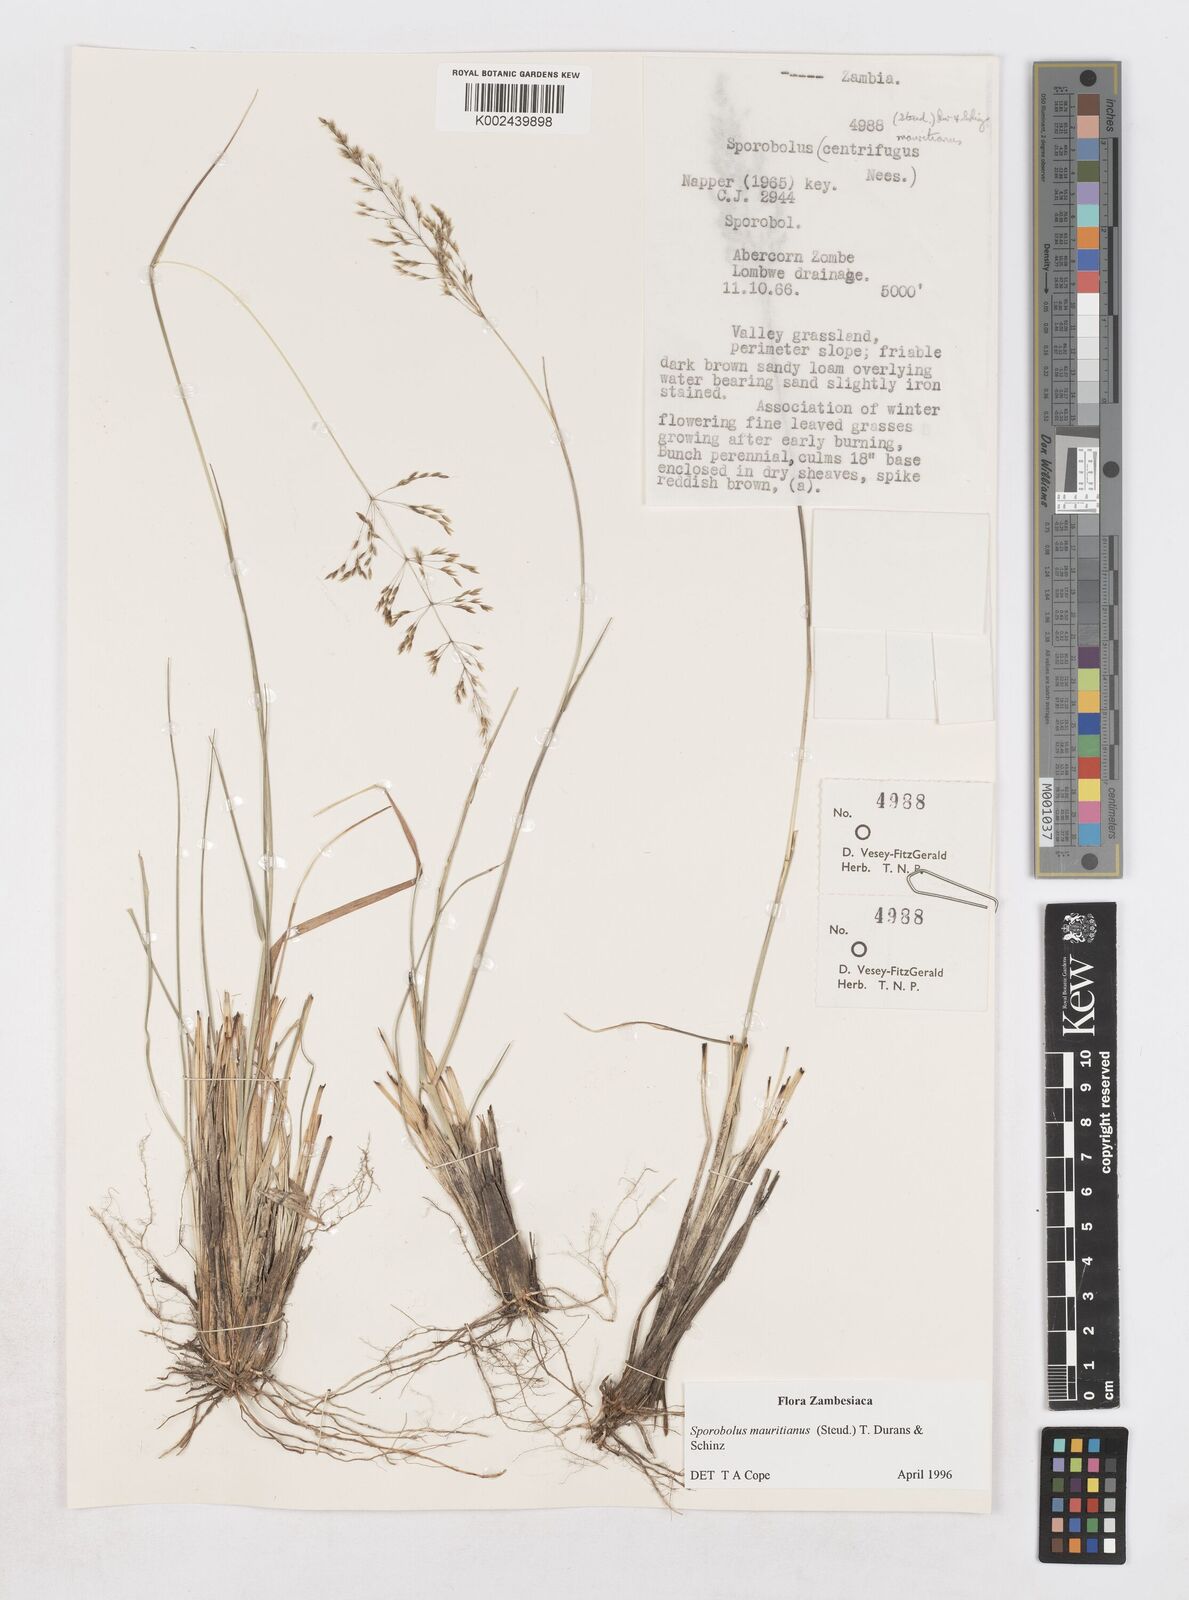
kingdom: Plantae
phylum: Tracheophyta
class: Liliopsida
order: Poales
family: Poaceae
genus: Sporobolus
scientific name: Sporobolus subulatus
